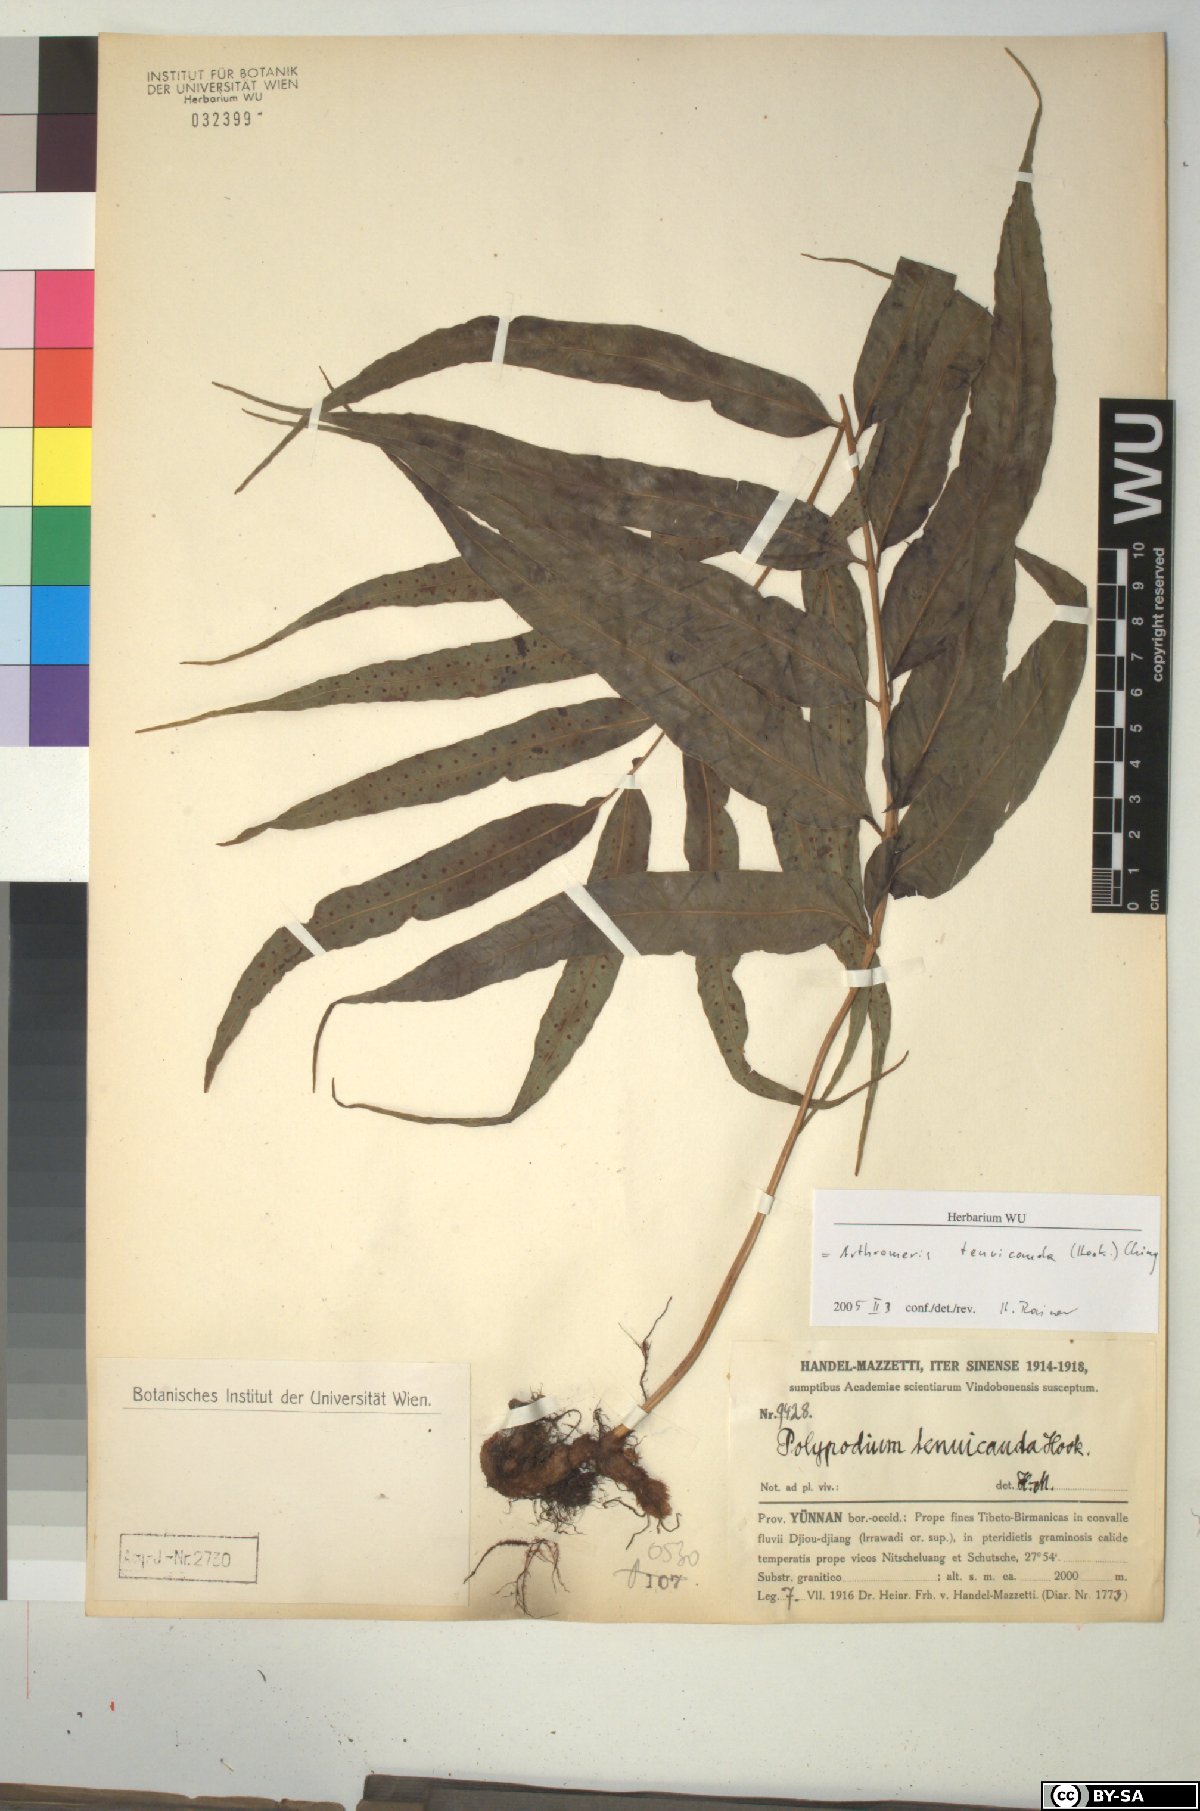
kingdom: Plantae
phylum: Tracheophyta
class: Polypodiopsida
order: Polypodiales
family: Polypodiaceae
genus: Selliguea
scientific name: Selliguea tenuicauda
